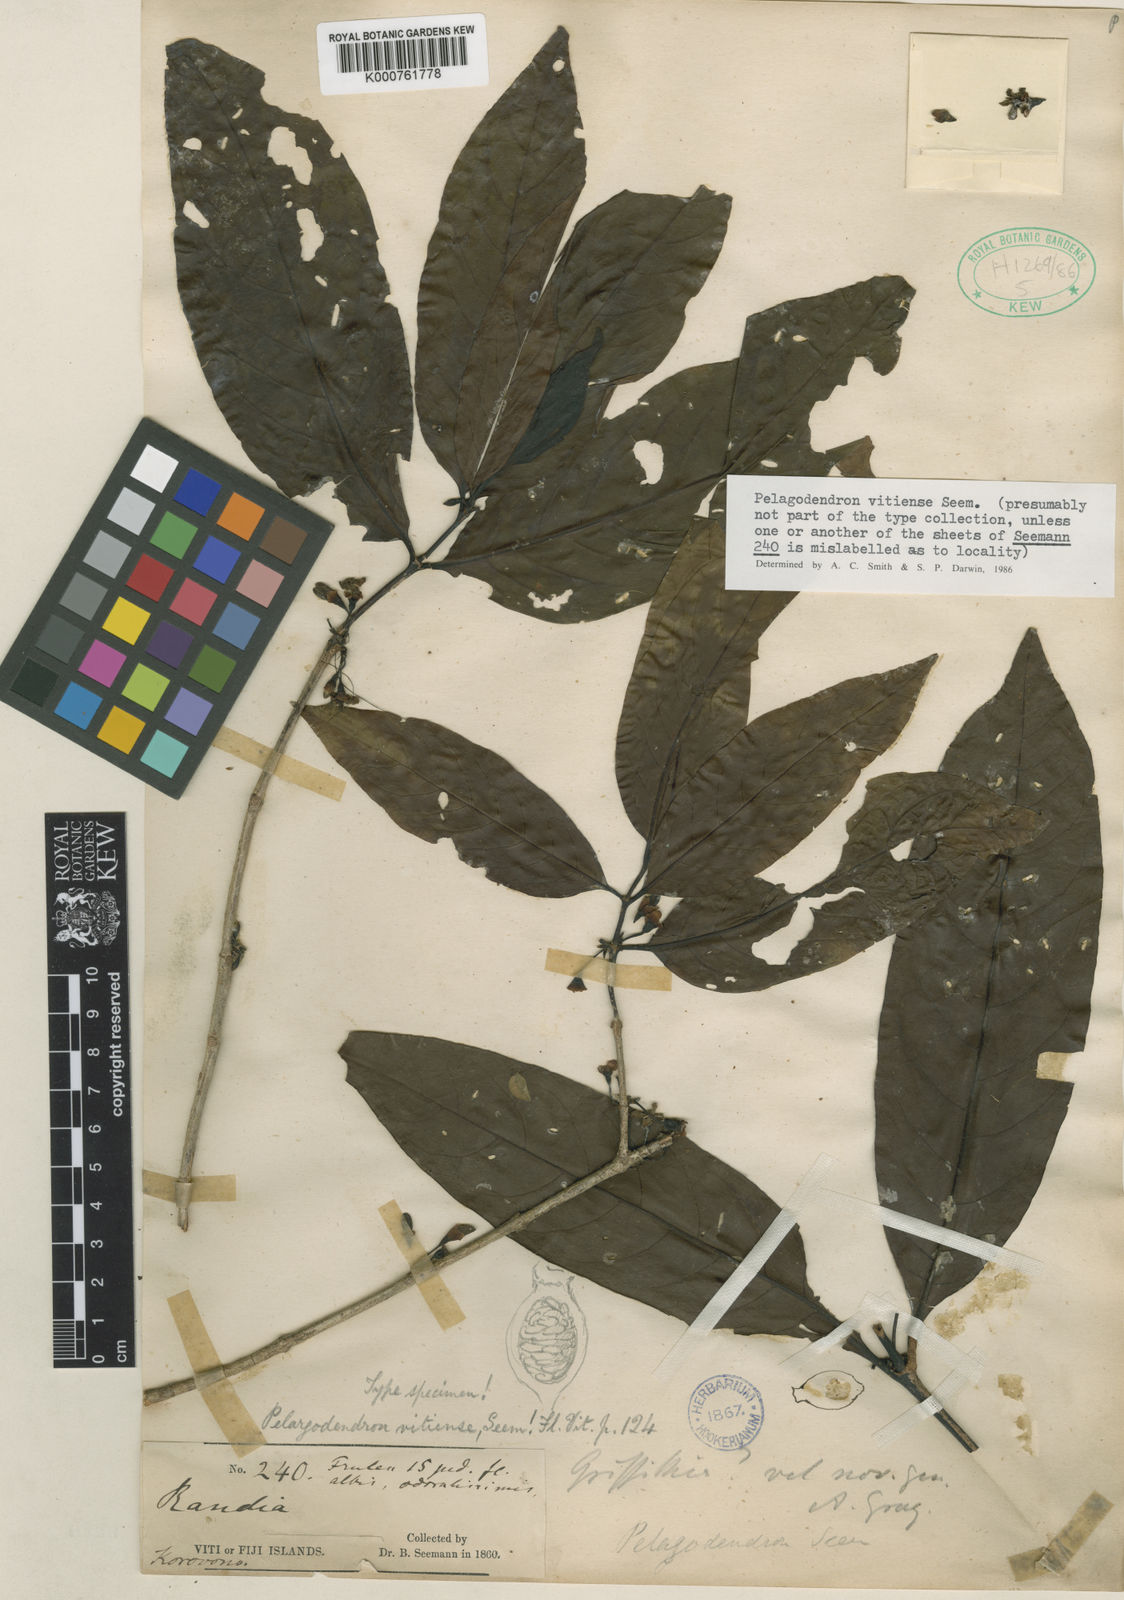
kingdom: Plantae
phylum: Tracheophyta
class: Magnoliopsida
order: Gentianales
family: Rubiaceae
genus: Aidia
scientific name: Aidia vitiensis
